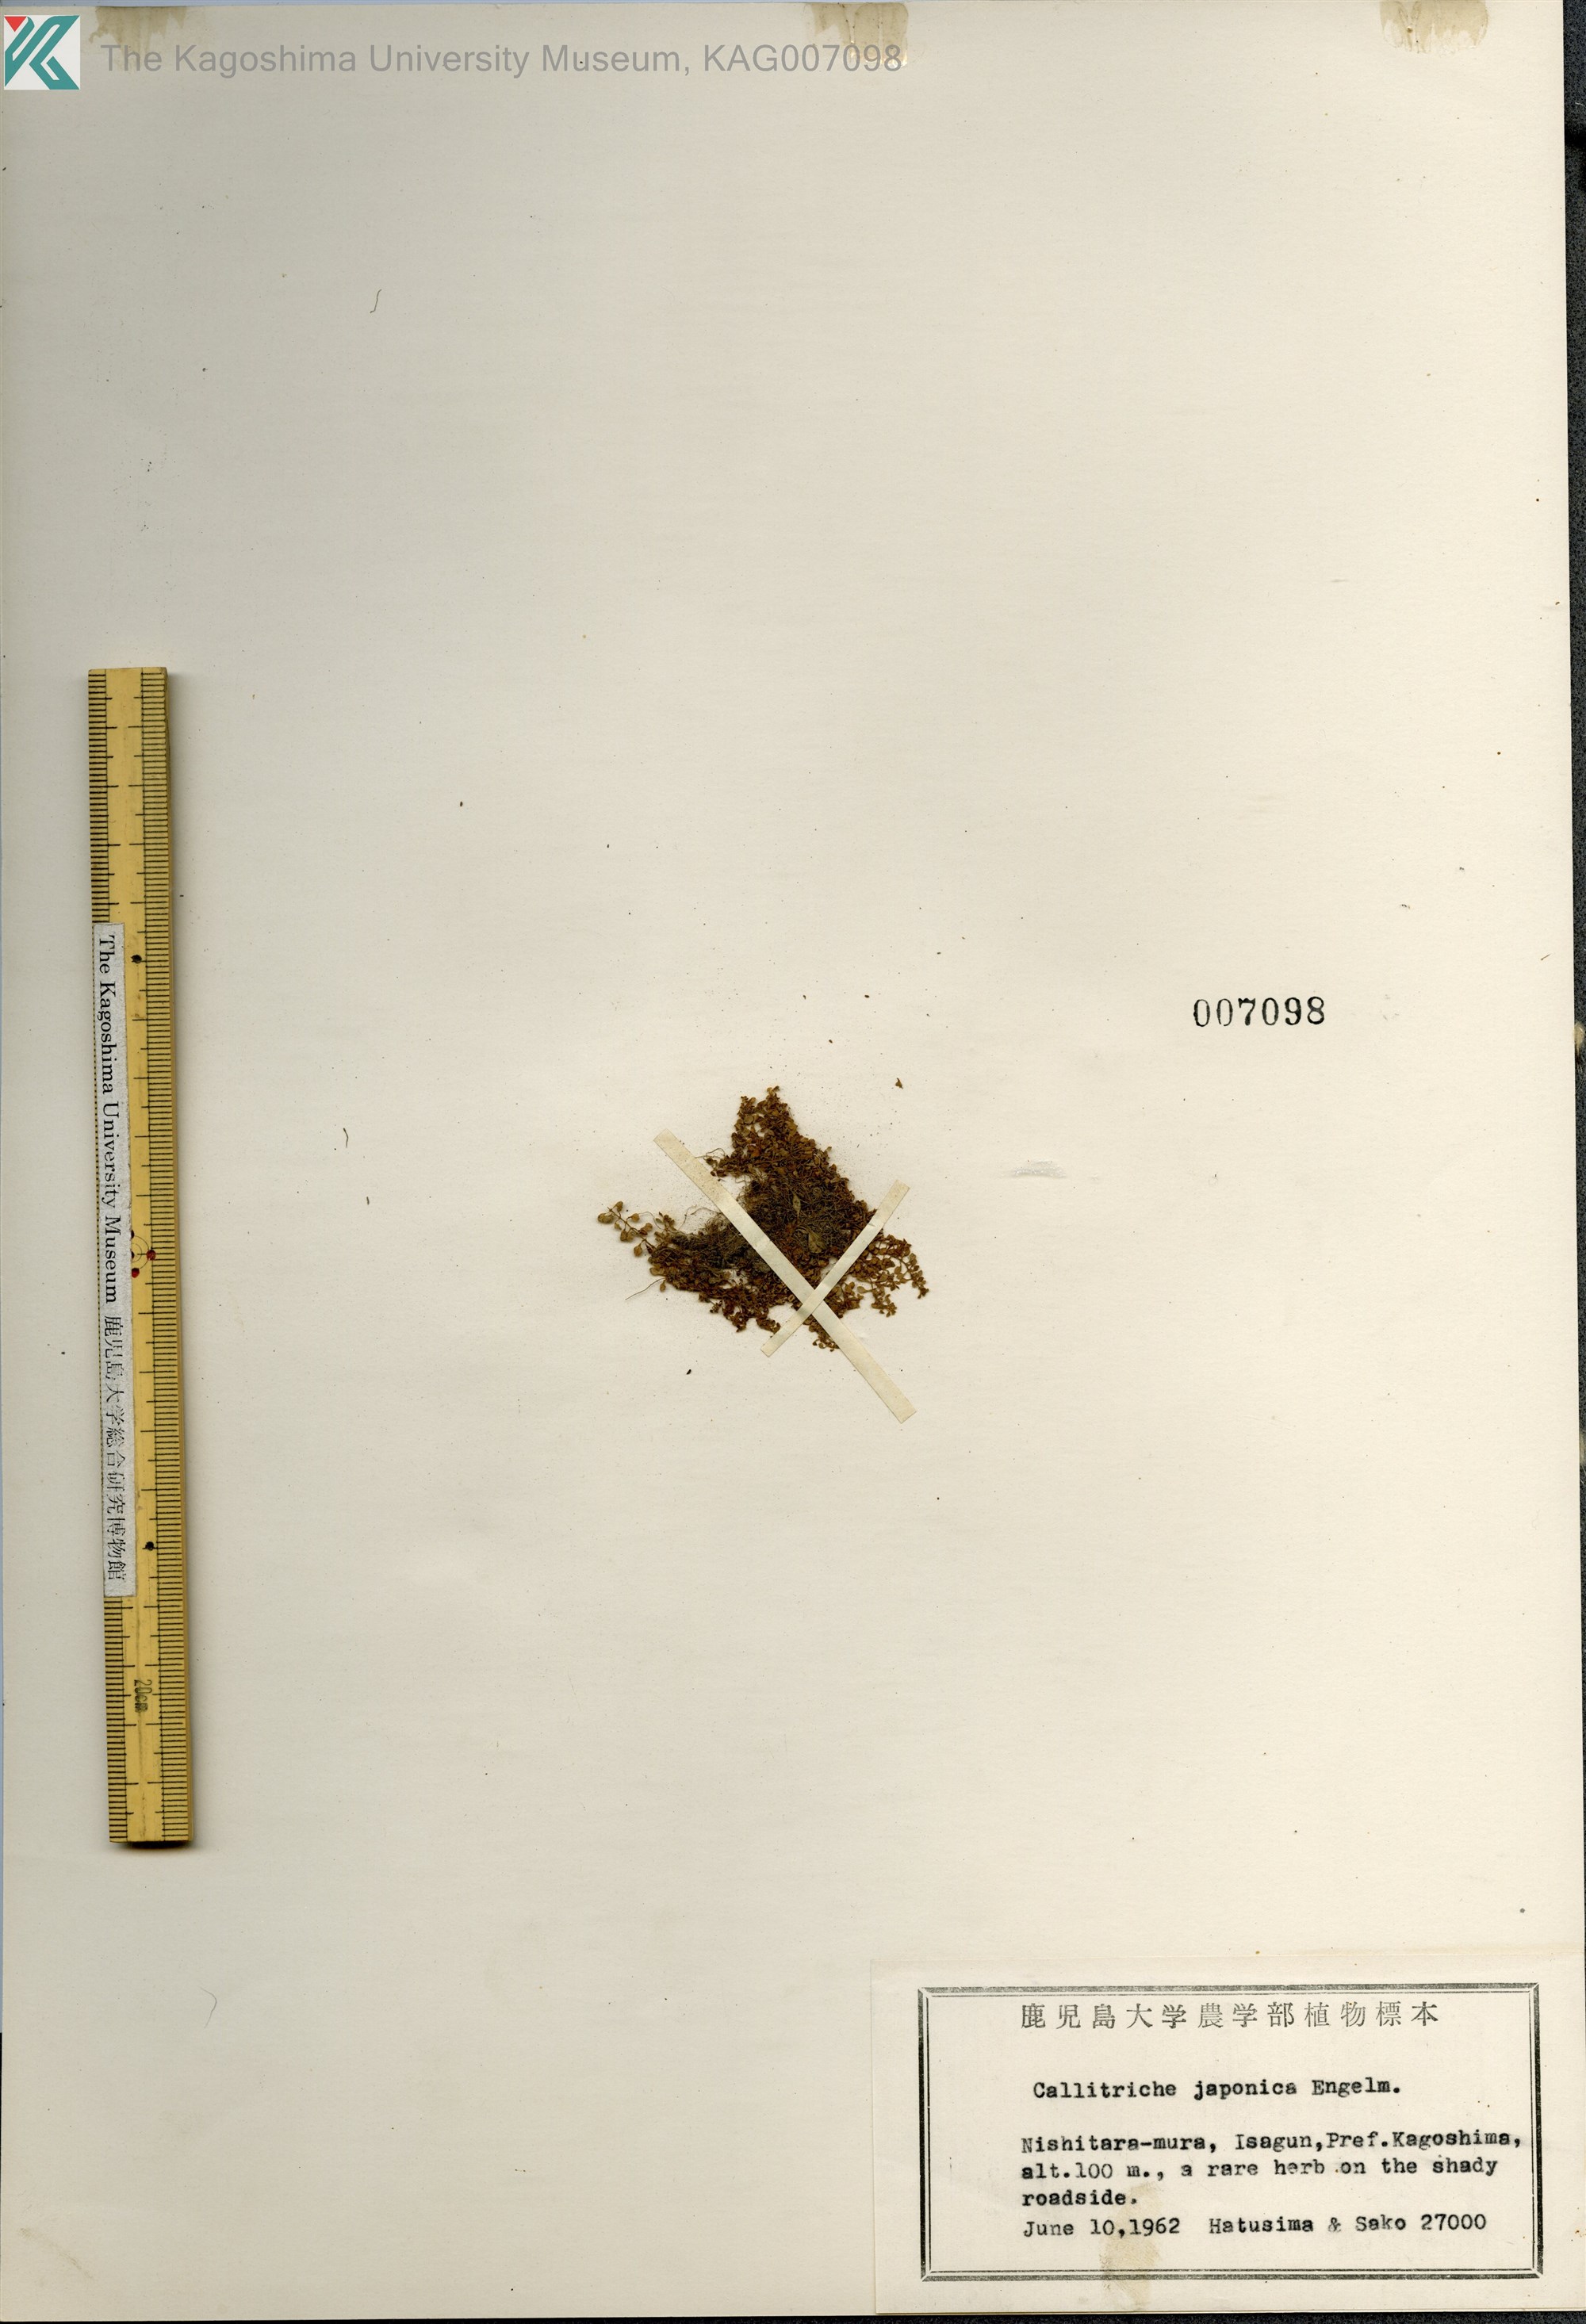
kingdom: Plantae
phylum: Tracheophyta
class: Magnoliopsida
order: Lamiales
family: Plantaginaceae
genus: Callitriche
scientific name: Callitriche japonica
